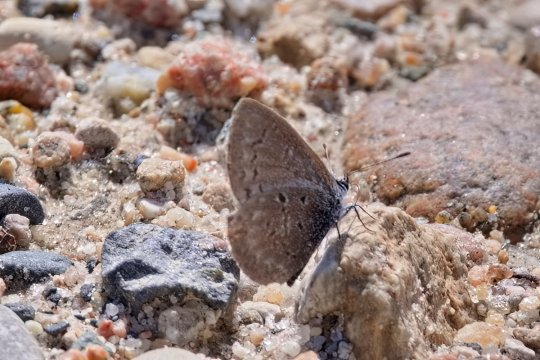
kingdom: Animalia
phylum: Arthropoda
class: Insecta
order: Lepidoptera
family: Lycaenidae
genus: Celastrina
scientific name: Celastrina lucia
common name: Northern Spring Azure
